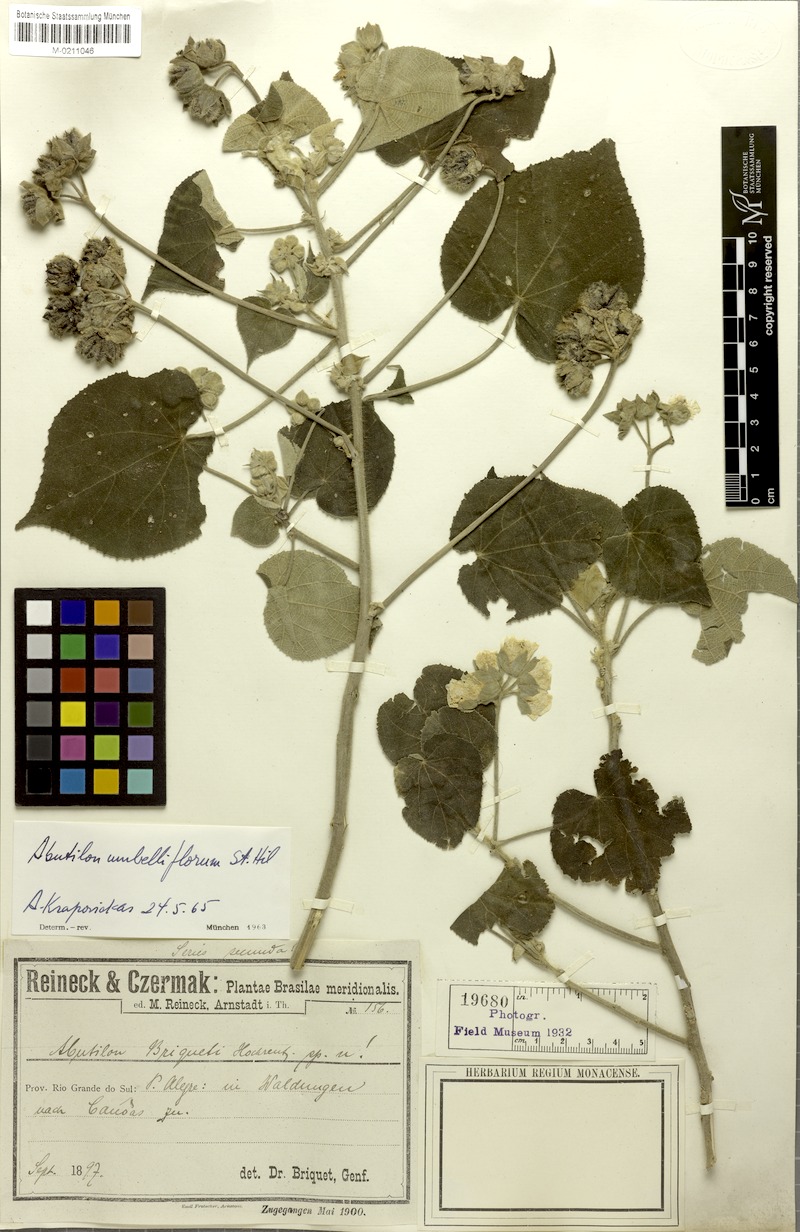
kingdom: Plantae
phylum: Tracheophyta
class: Magnoliopsida
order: Malvales
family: Malvaceae
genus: Abutilon
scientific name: Abutilon umbelliflorum
